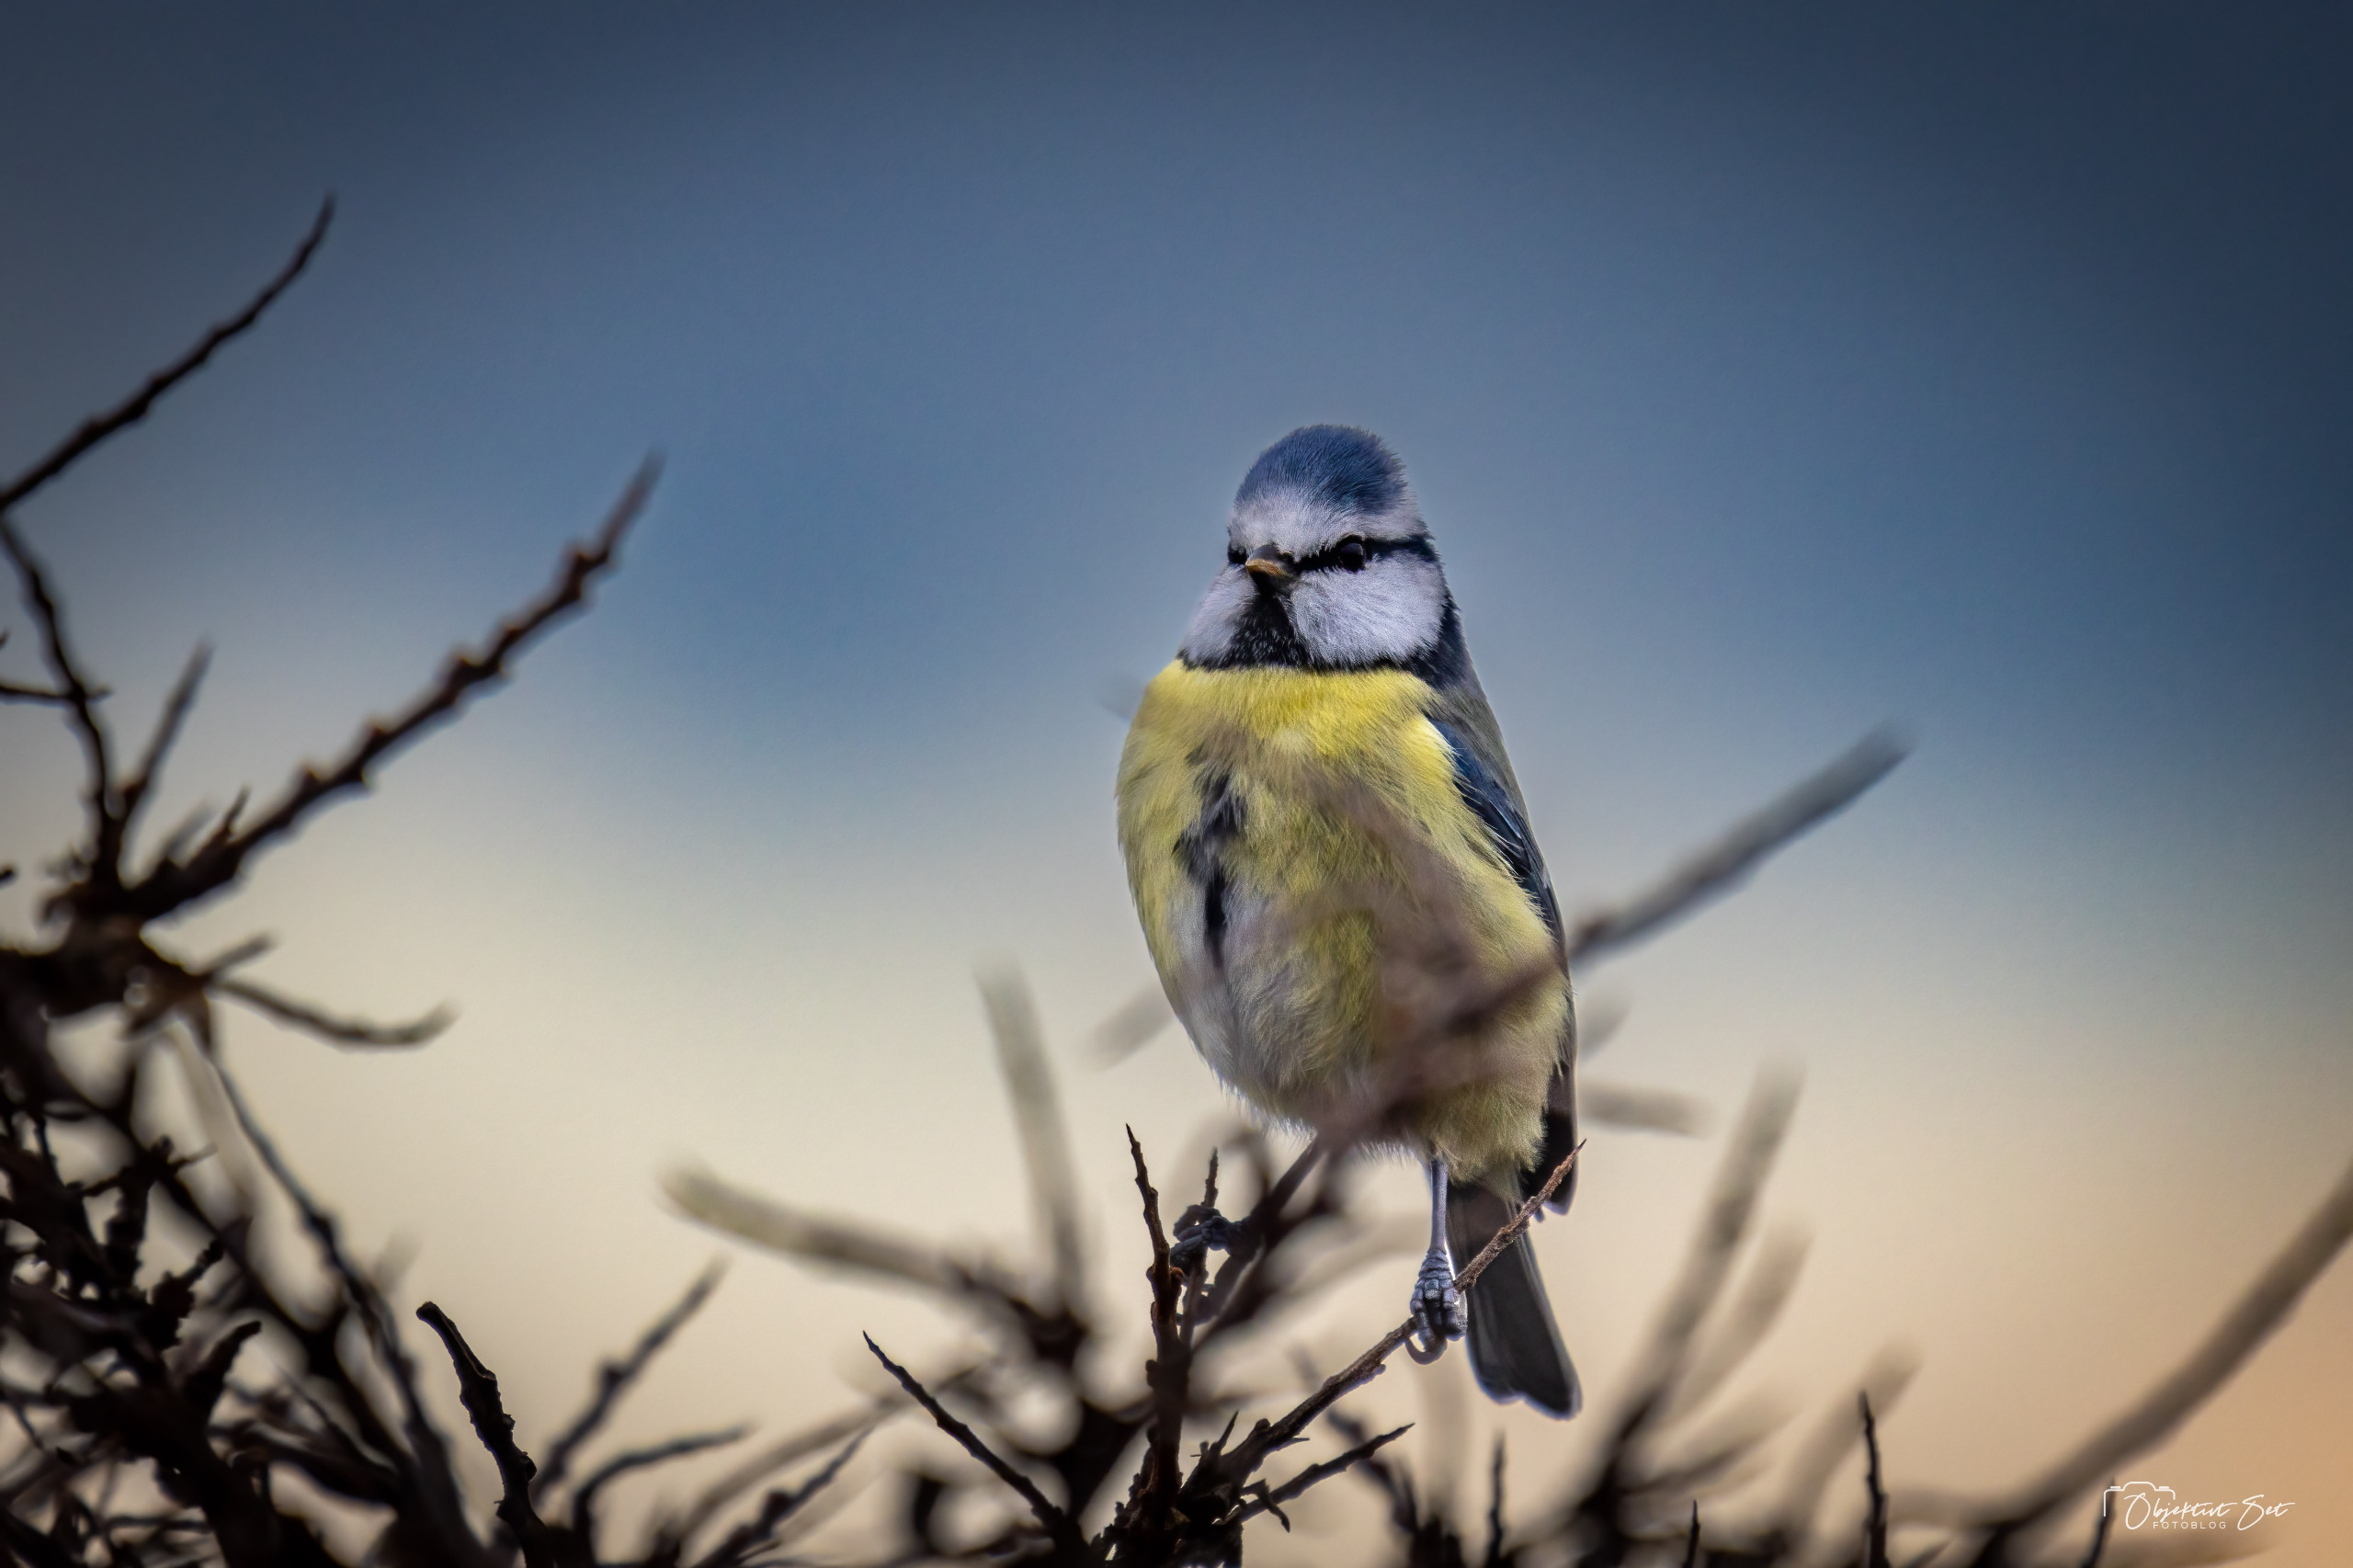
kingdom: Animalia
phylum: Chordata
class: Aves
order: Passeriformes
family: Paridae
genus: Cyanistes
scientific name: Cyanistes caeruleus
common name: Blåmejse
